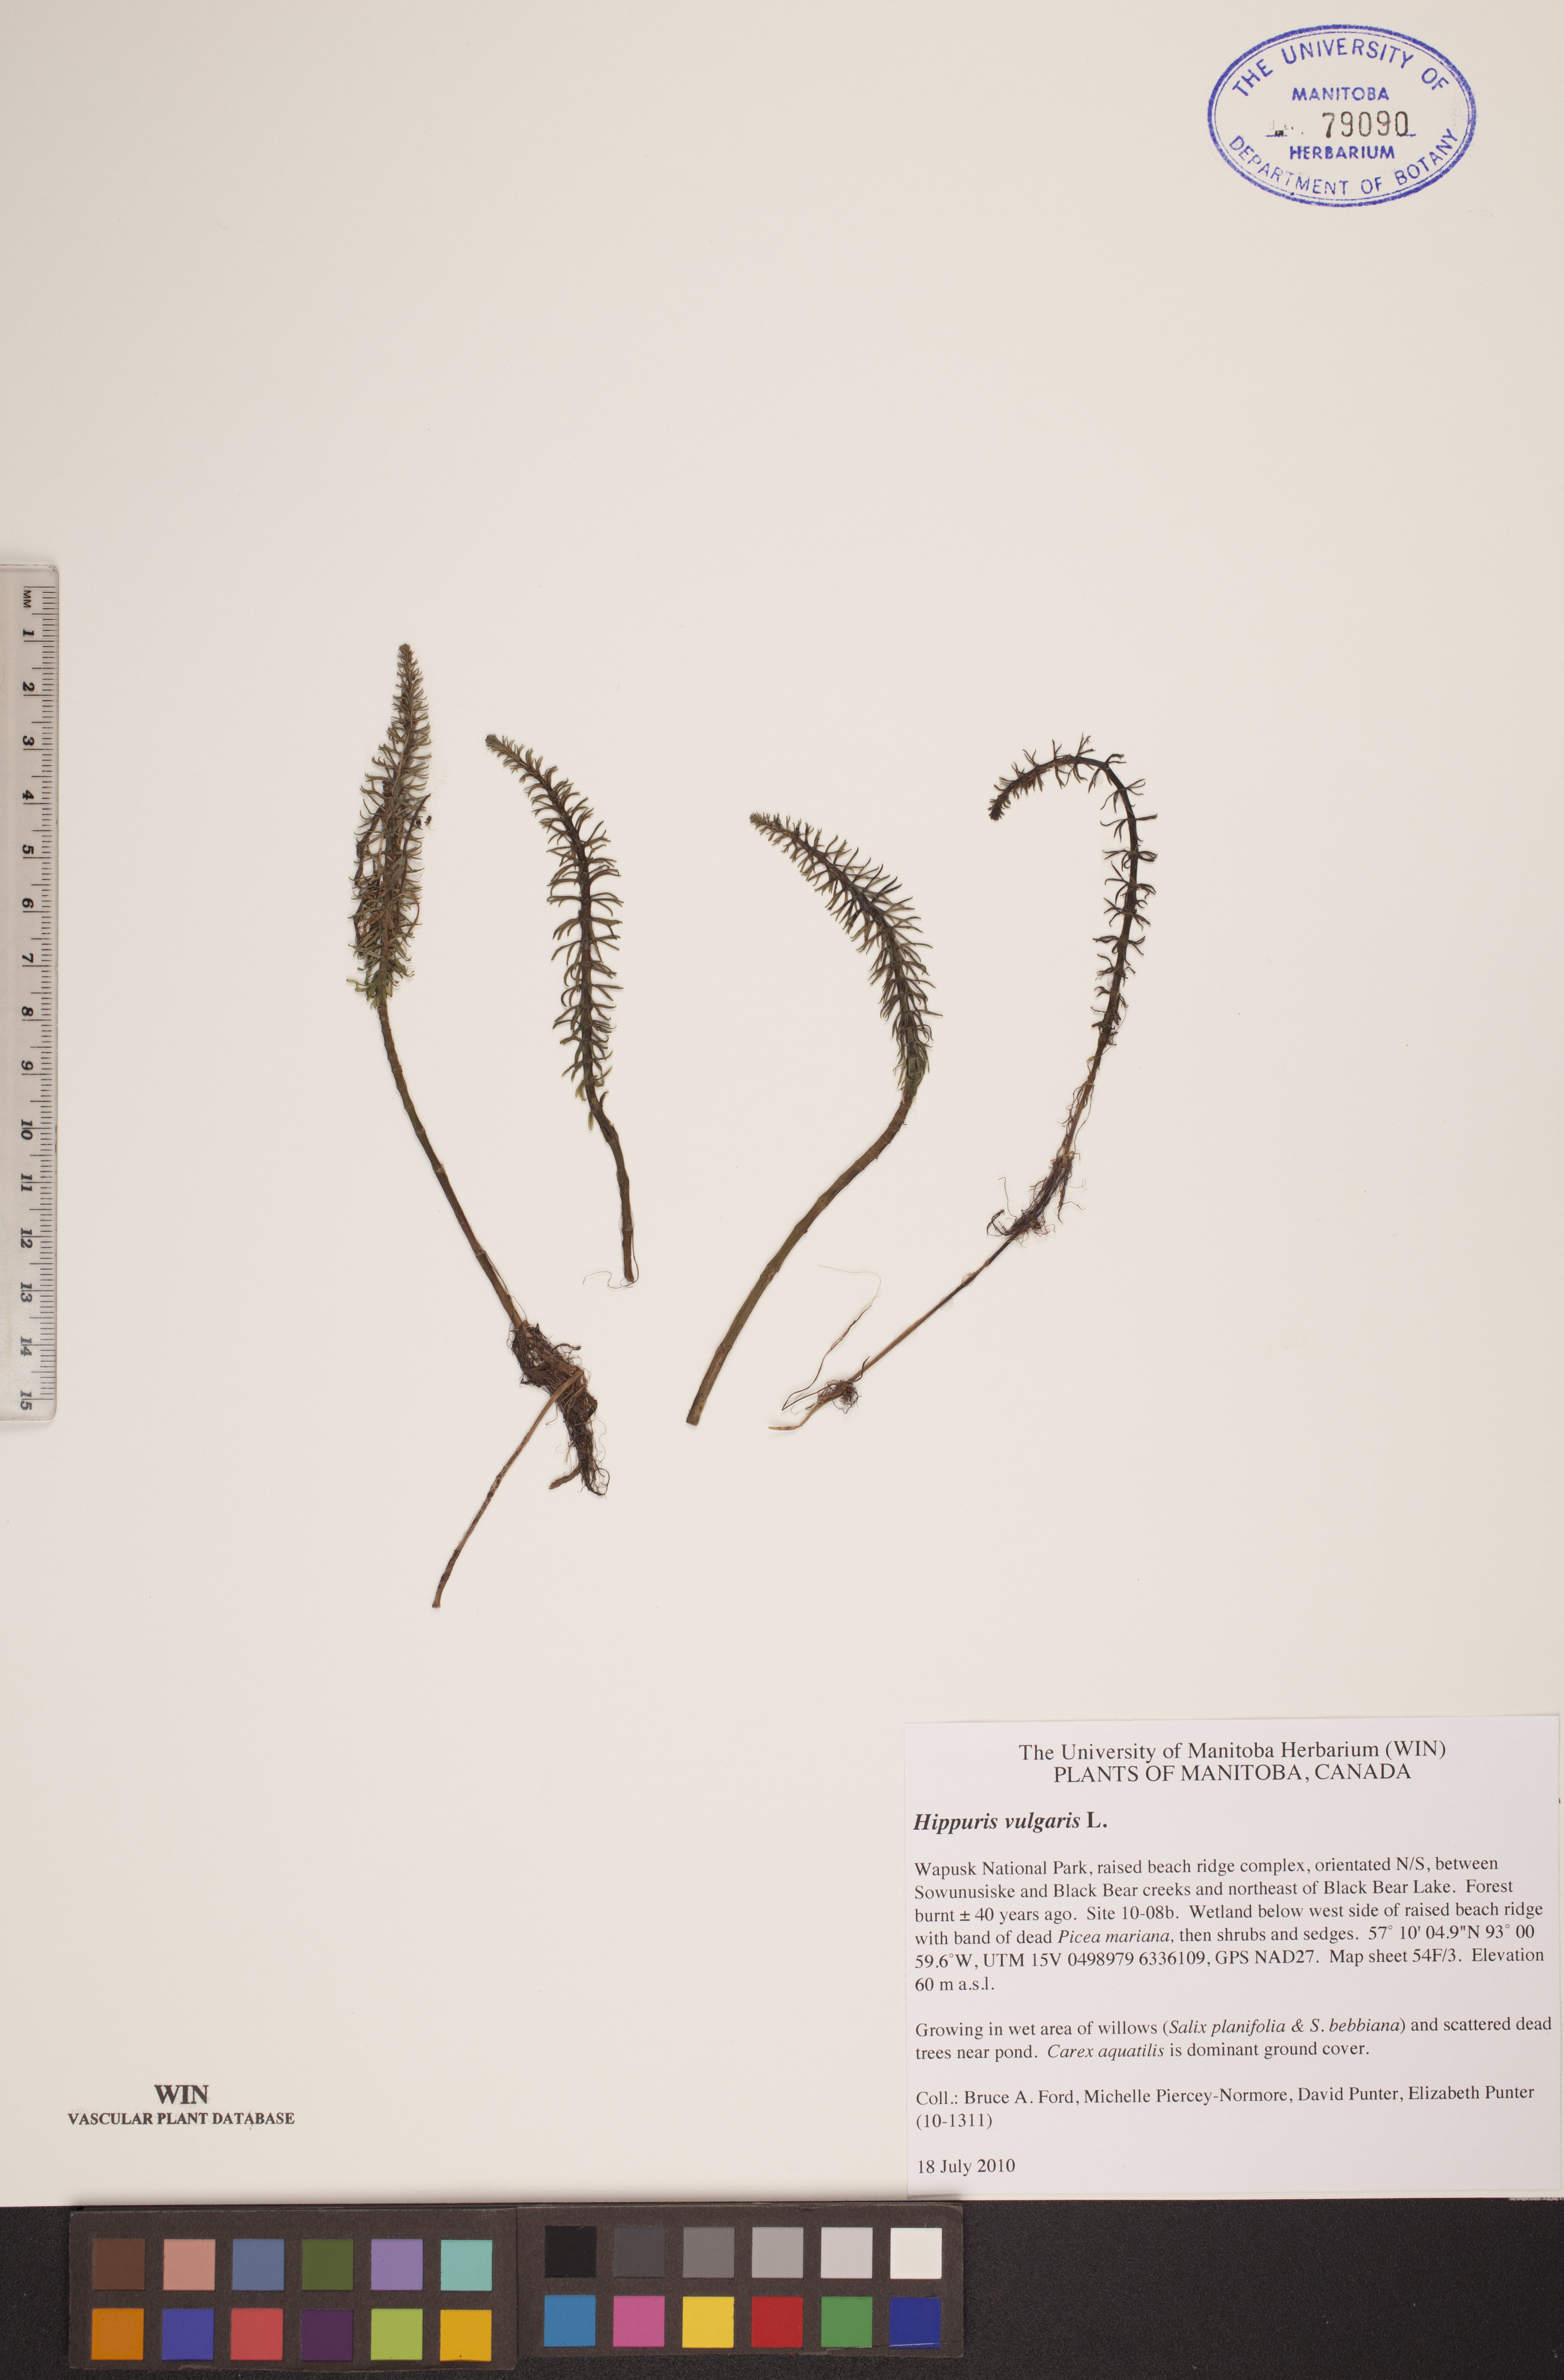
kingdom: Plantae
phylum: Tracheophyta
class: Magnoliopsida
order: Lamiales
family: Plantaginaceae
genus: Hippuris
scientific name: Hippuris vulgaris
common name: Mare's-tail
